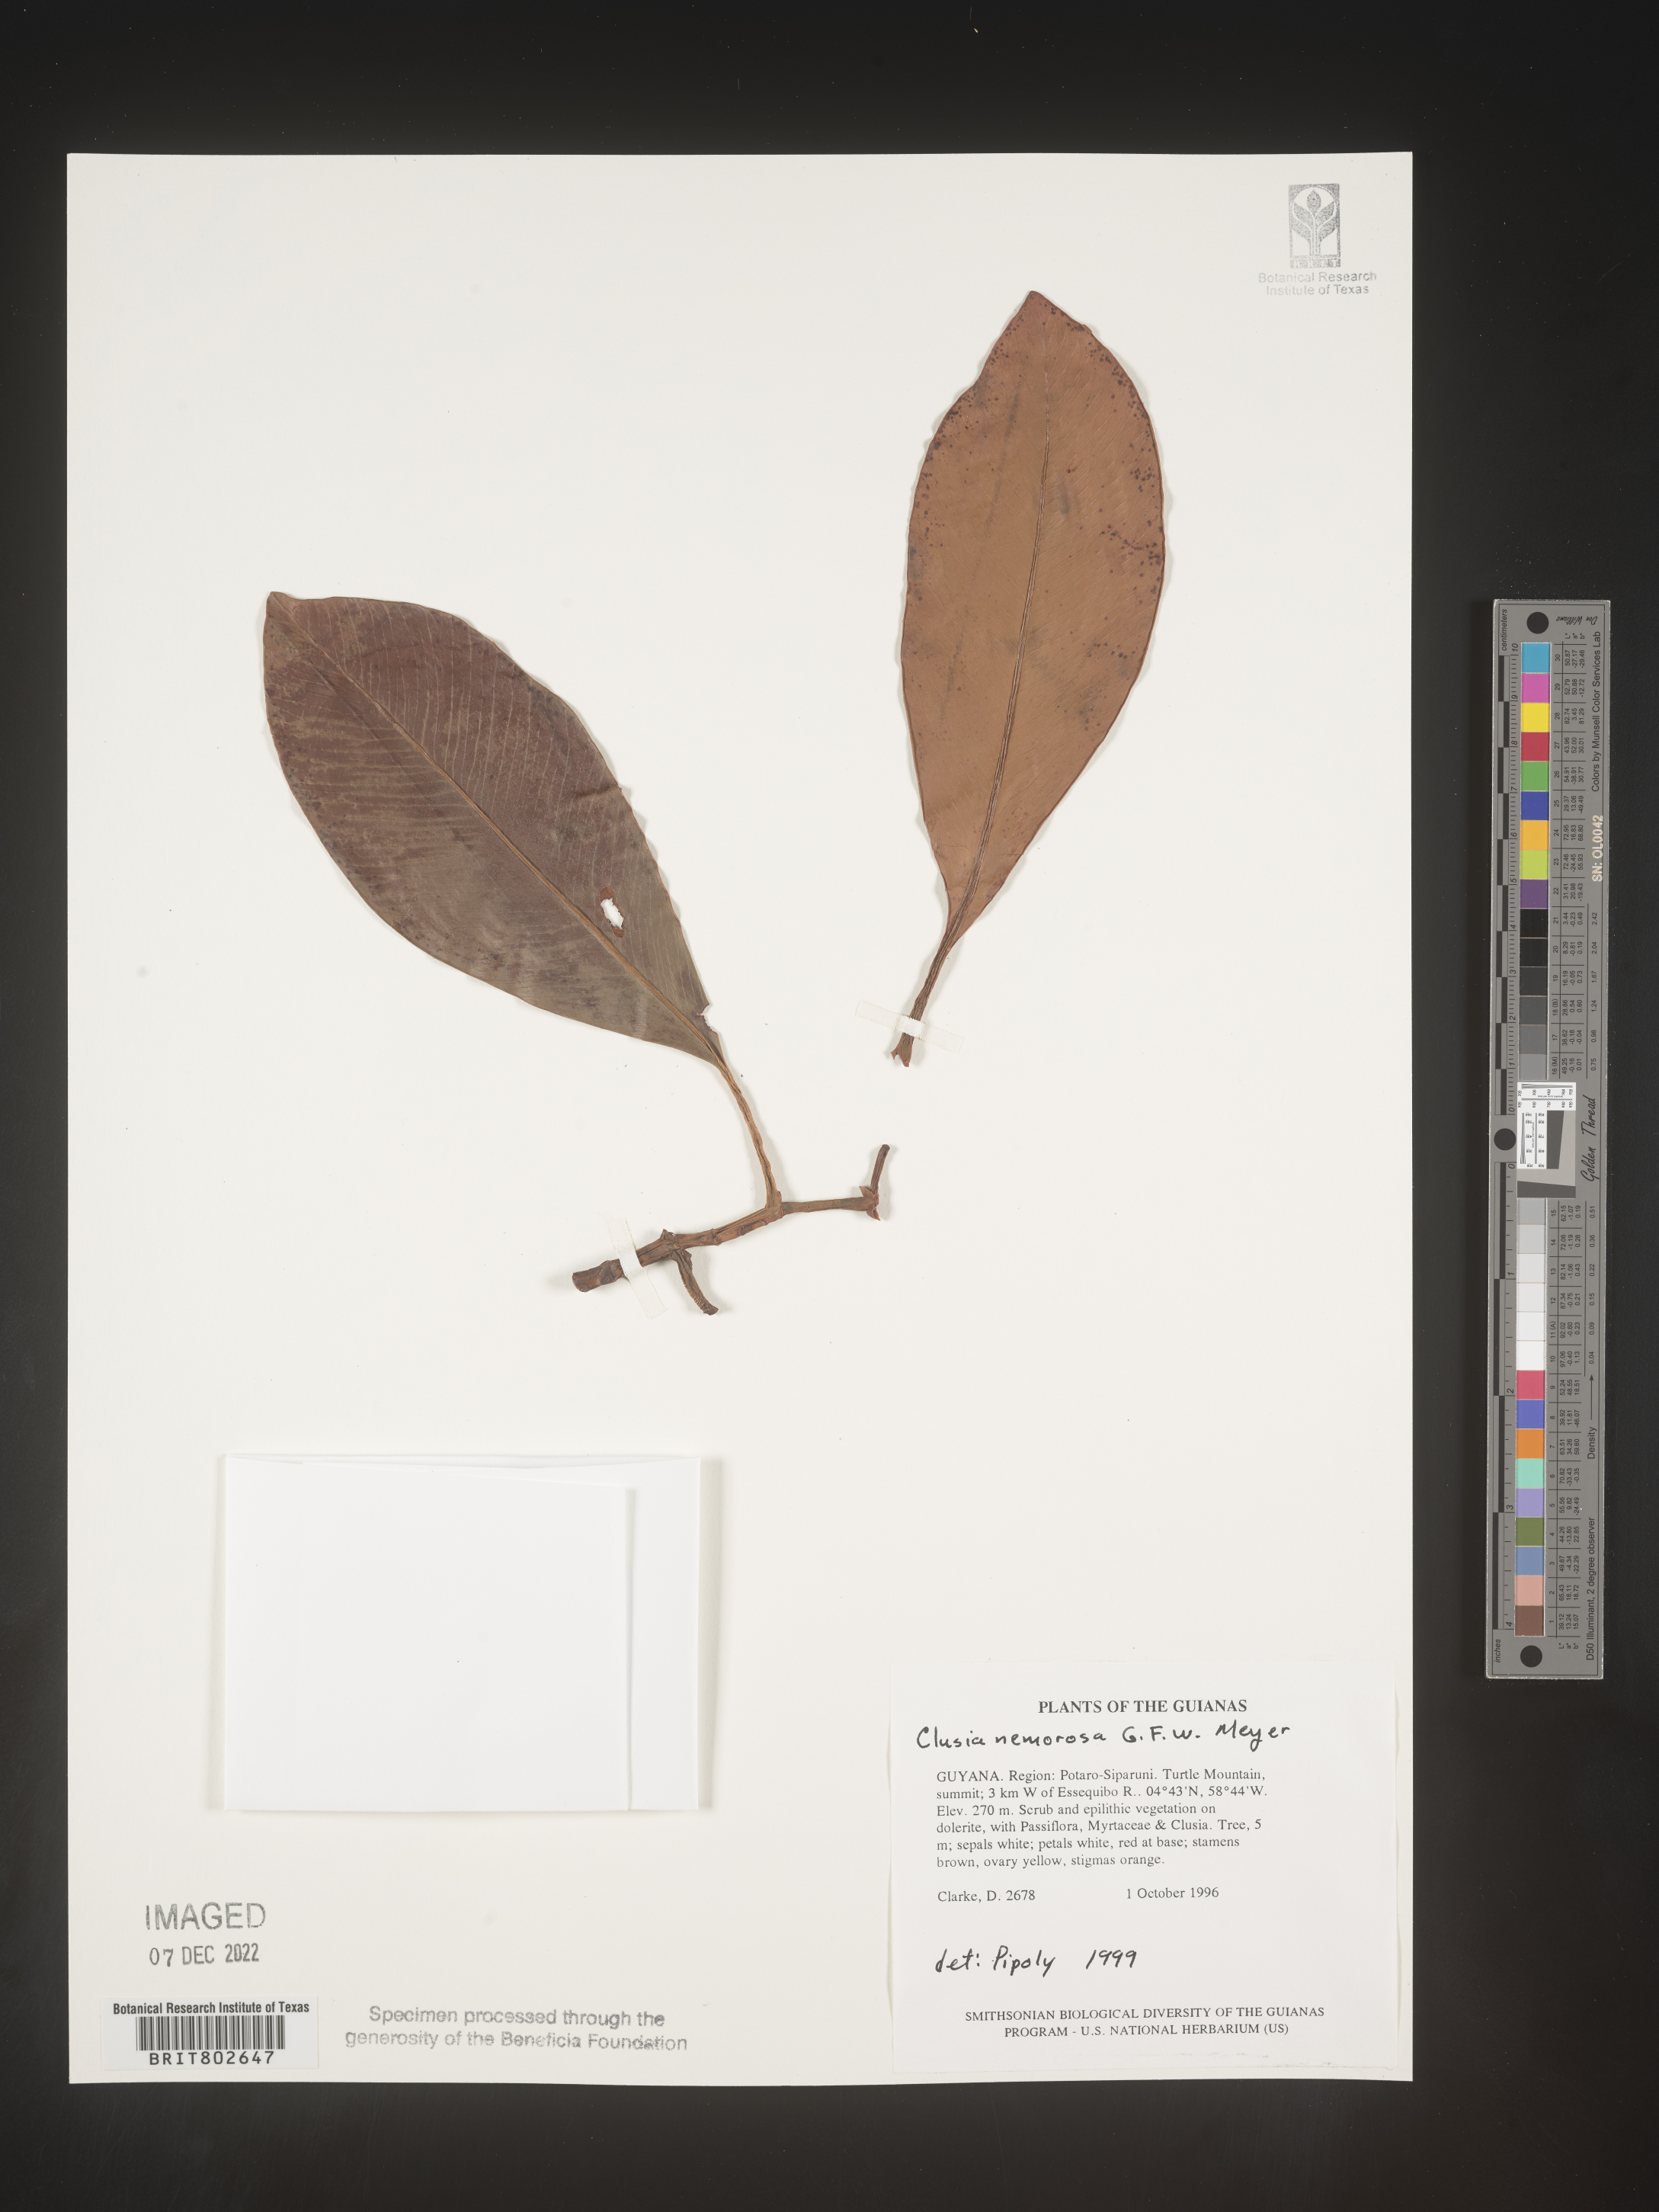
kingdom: Plantae
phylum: Tracheophyta
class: Magnoliopsida
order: Malpighiales
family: Clusiaceae
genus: Clusia
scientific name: Clusia nemorosa
